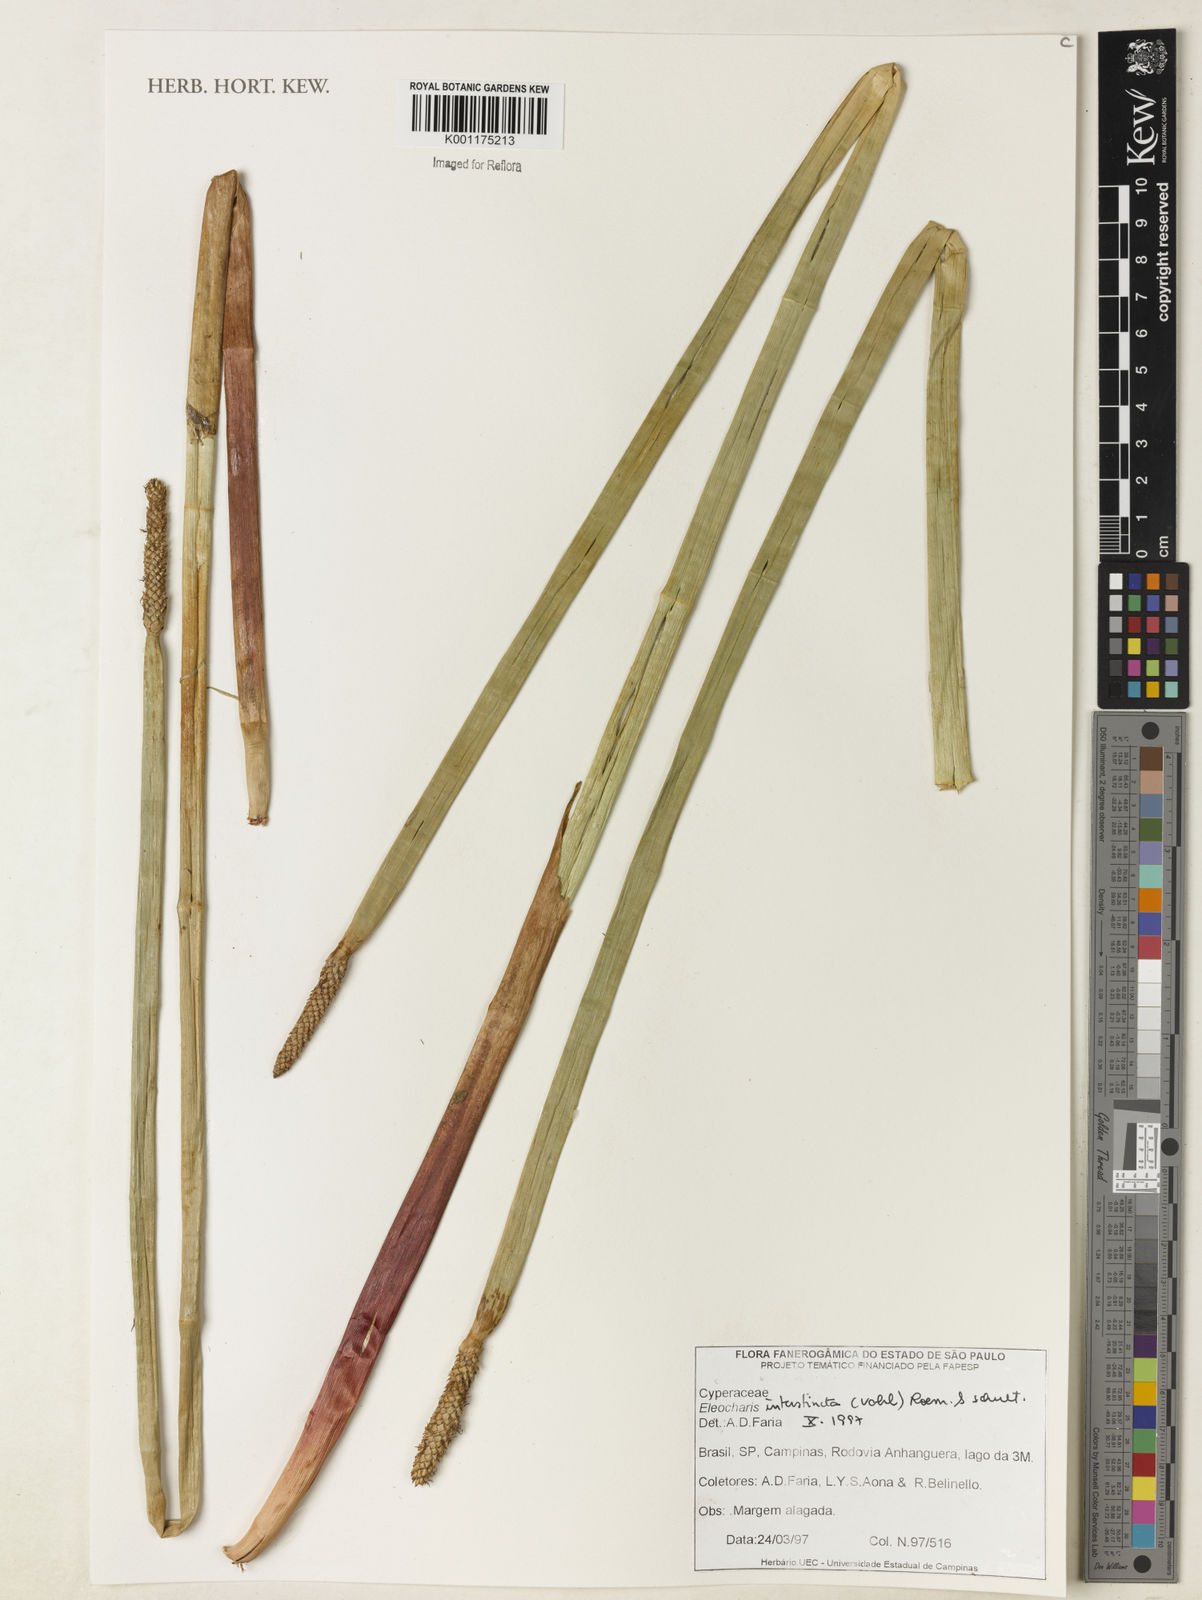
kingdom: Plantae
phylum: Tracheophyta
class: Liliopsida
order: Poales
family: Cyperaceae
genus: Eleocharis
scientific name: Eleocharis interstincta
